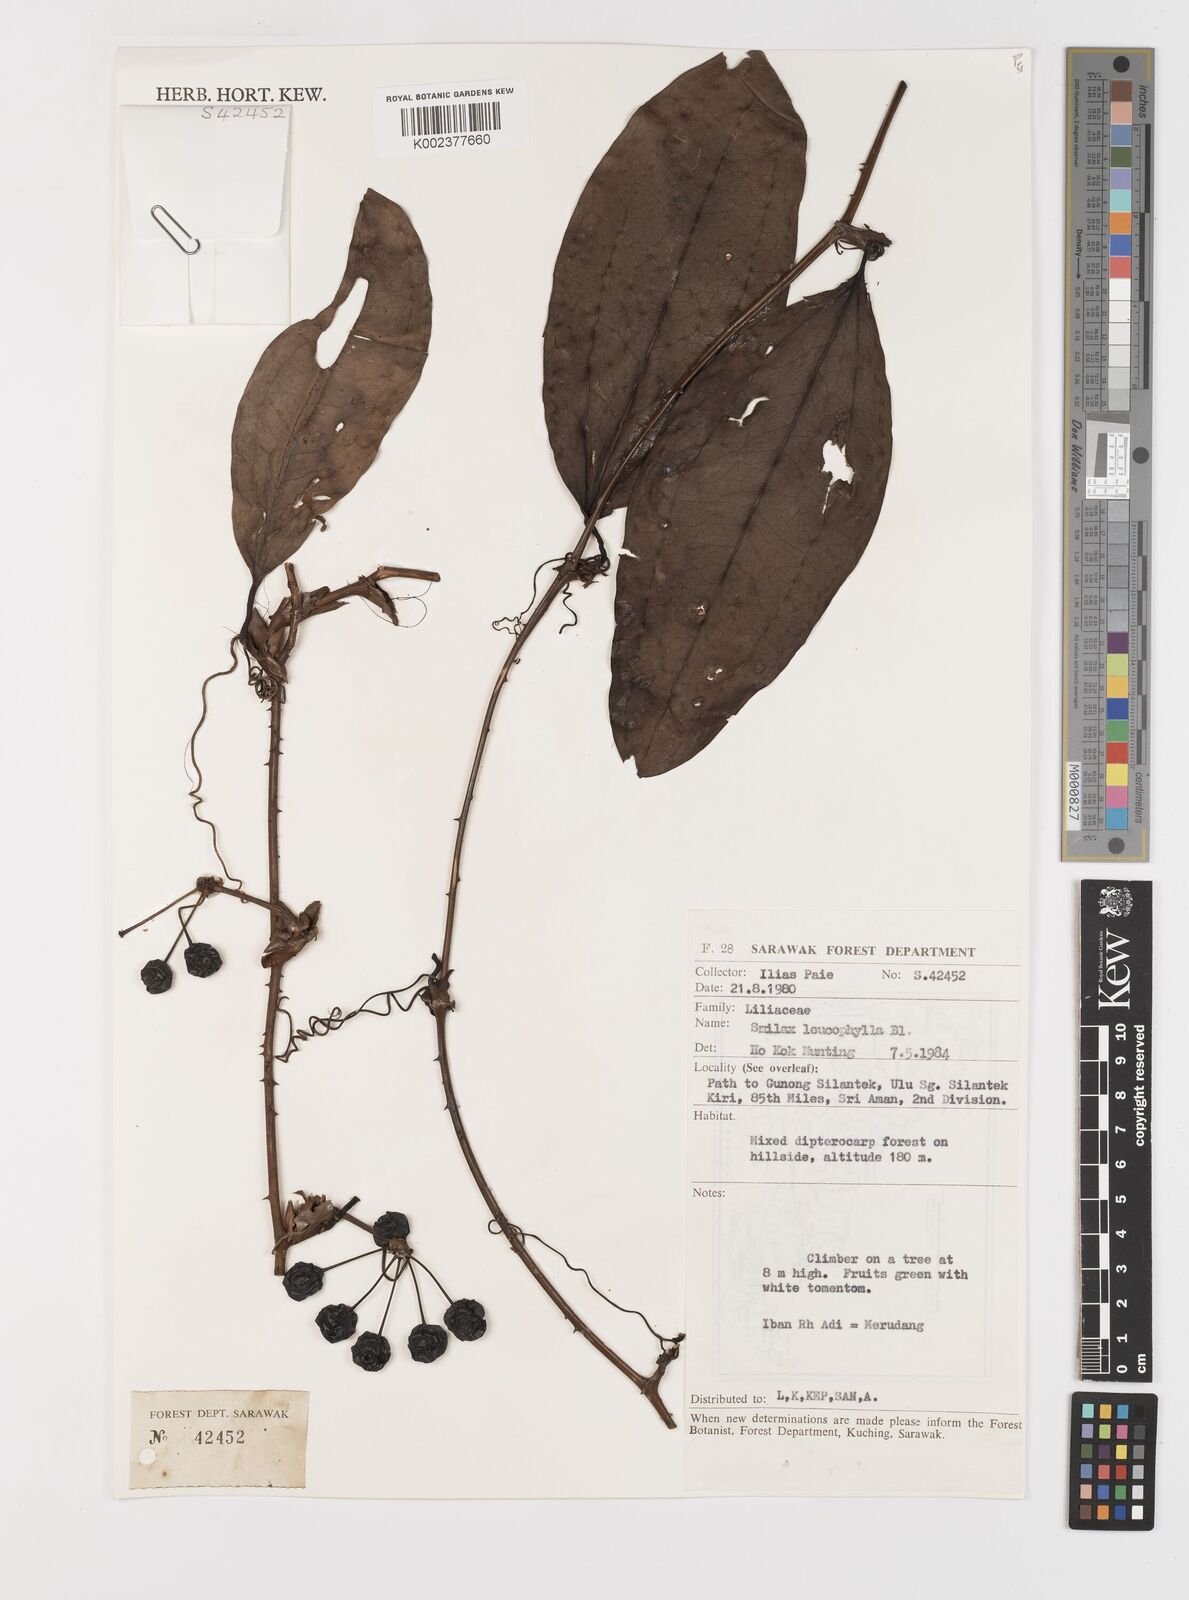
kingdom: Plantae
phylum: Tracheophyta
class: Liliopsida
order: Liliales
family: Smilacaceae
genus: Smilax
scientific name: Smilax leucophylla
